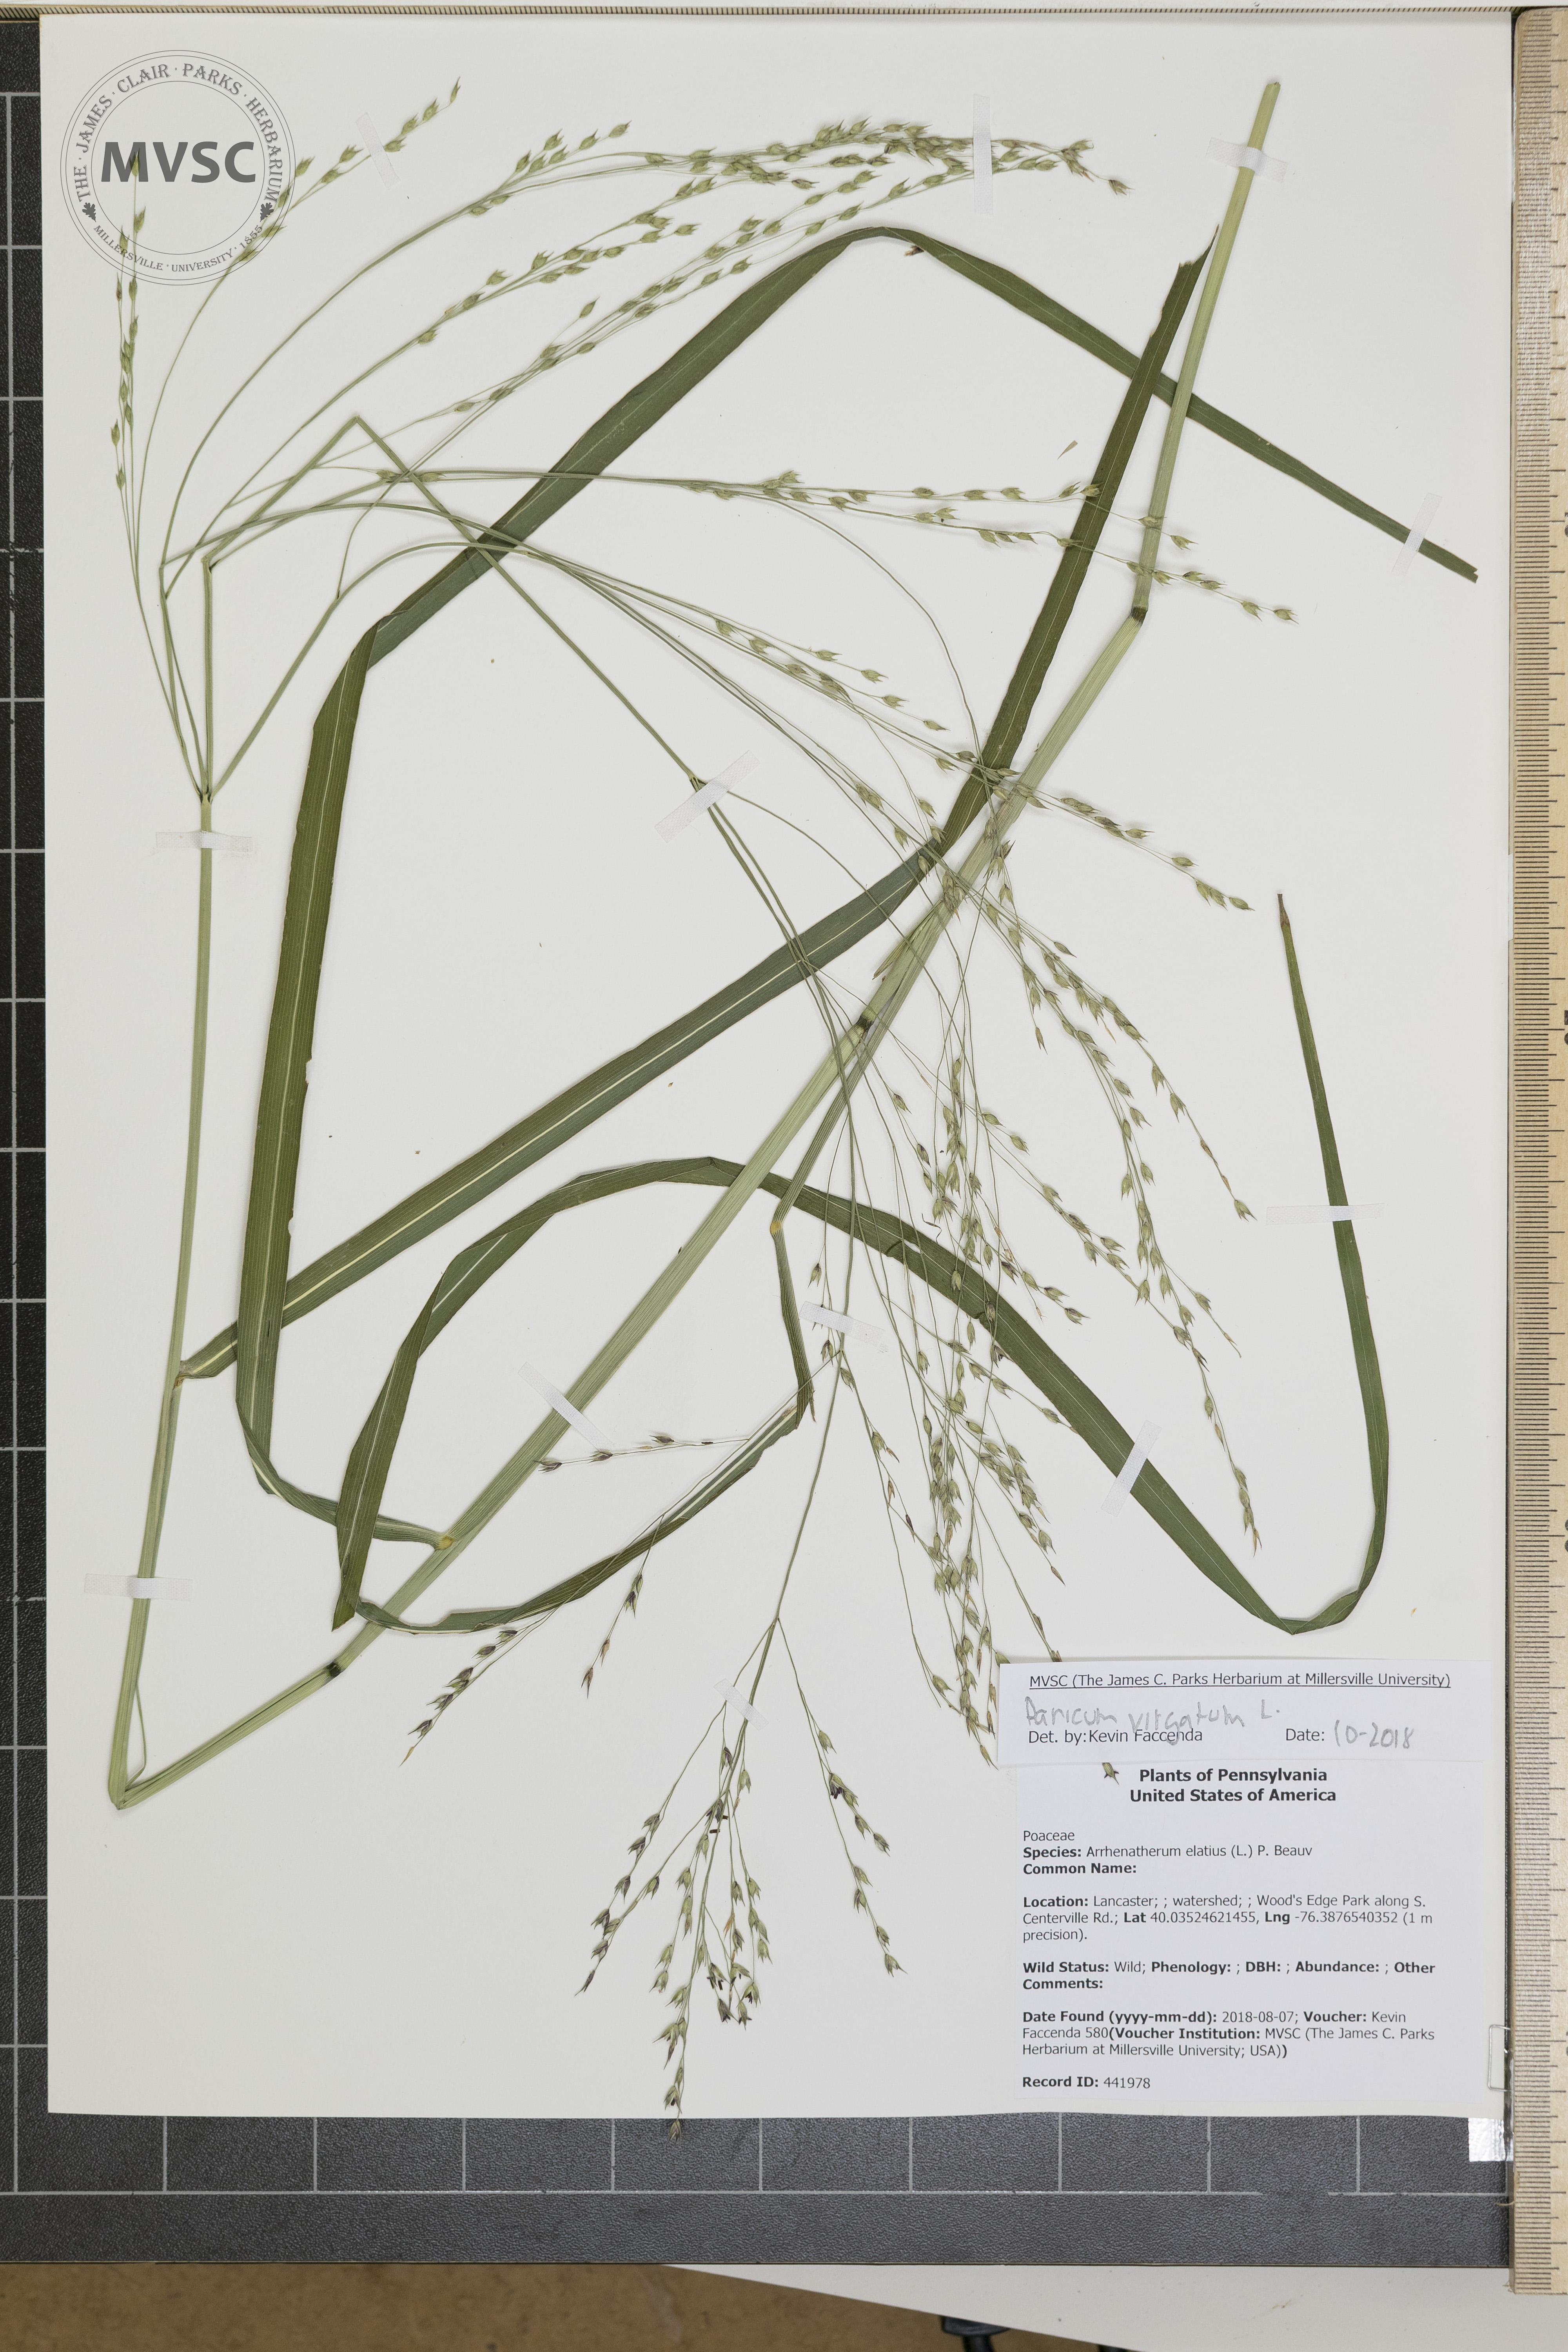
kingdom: Plantae
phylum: Tracheophyta
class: Liliopsida
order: Poales
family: Poaceae
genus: Panicum
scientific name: Panicum virgatum
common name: Switchgrass
